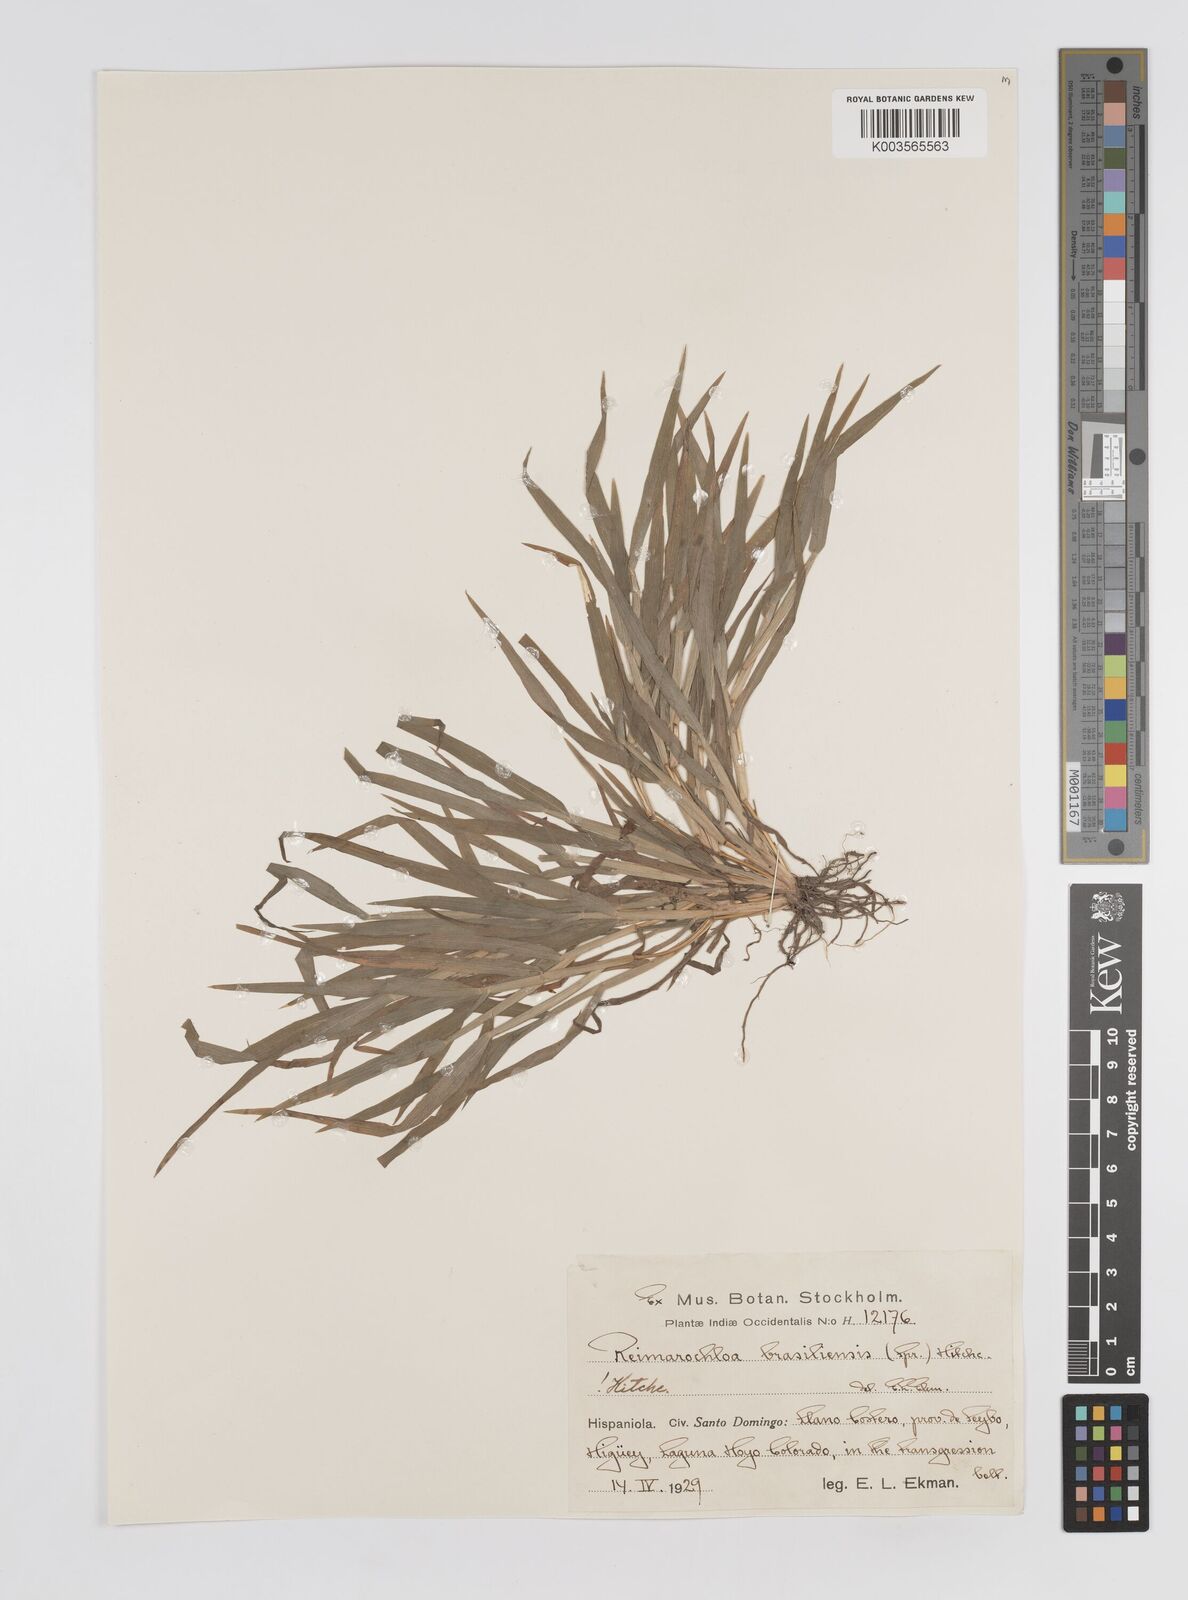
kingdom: Plantae
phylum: Tracheophyta
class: Liliopsida
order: Poales
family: Poaceae
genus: Paspalum
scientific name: Paspalum stagnophilum
